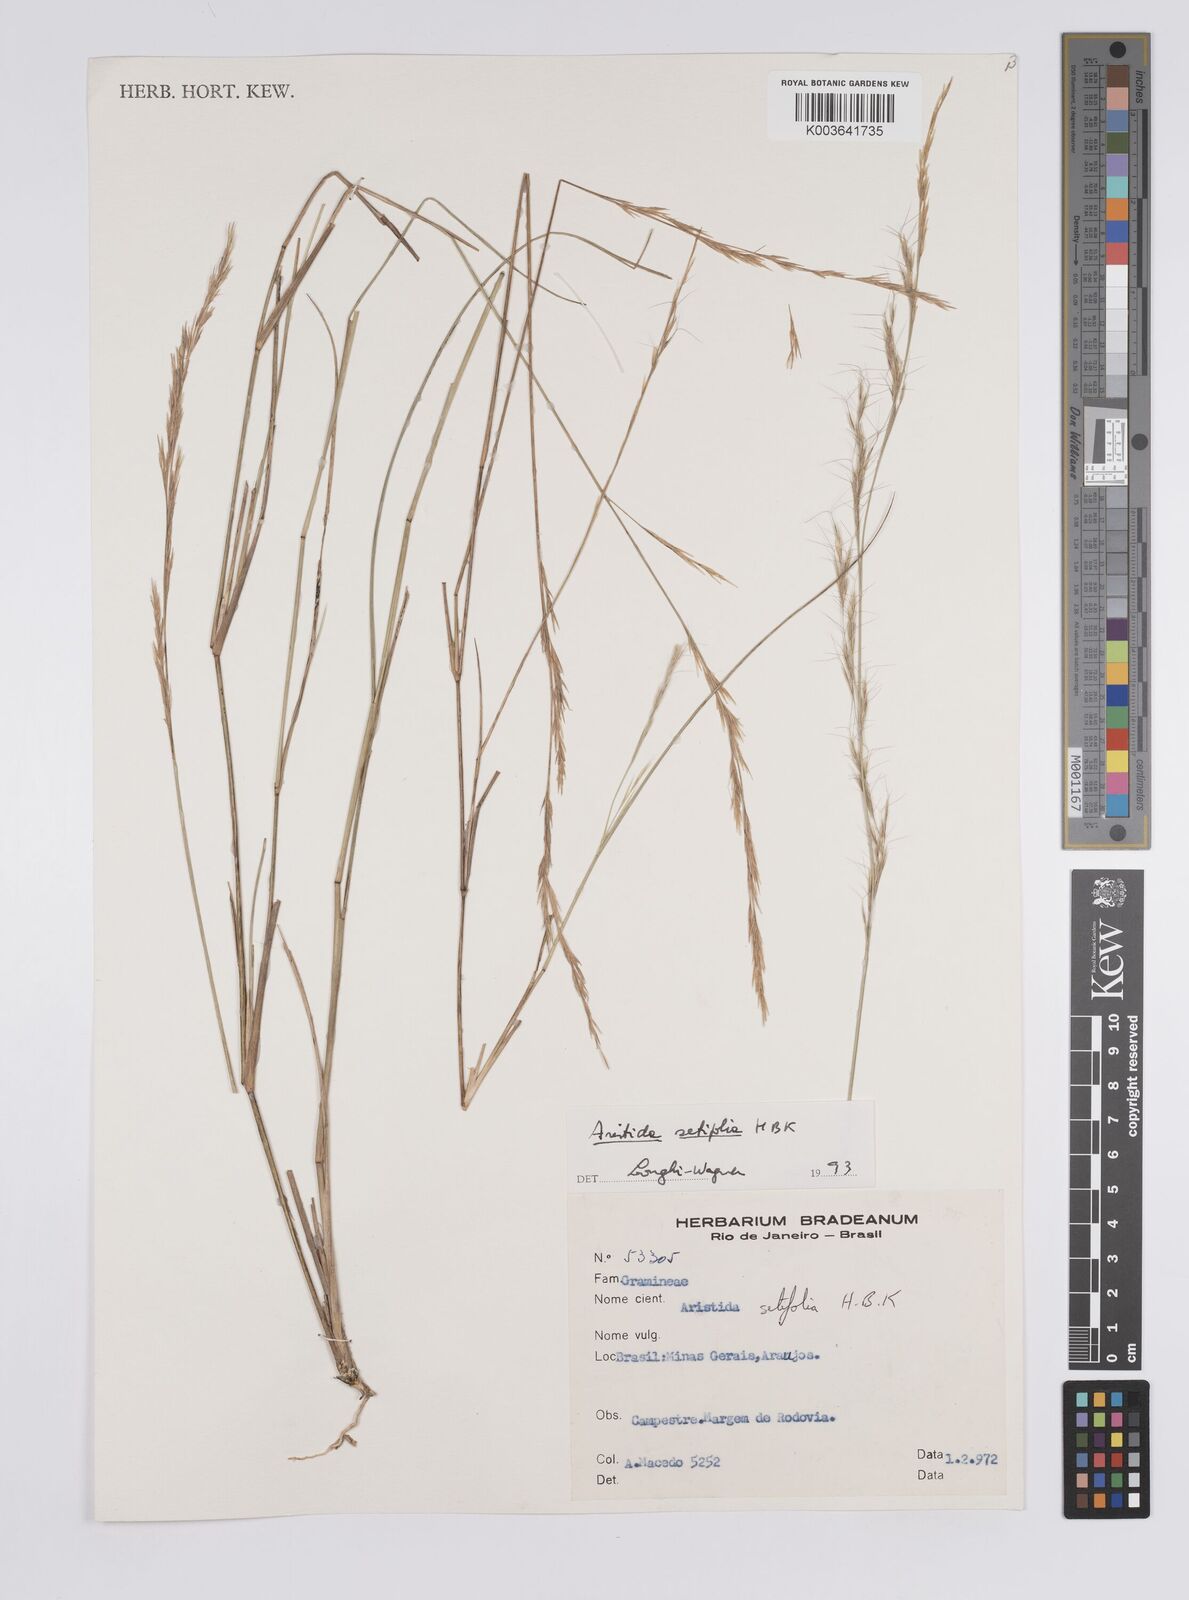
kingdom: Plantae
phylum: Tracheophyta
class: Liliopsida
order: Poales
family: Poaceae
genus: Aristida
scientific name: Aristida setifolia
